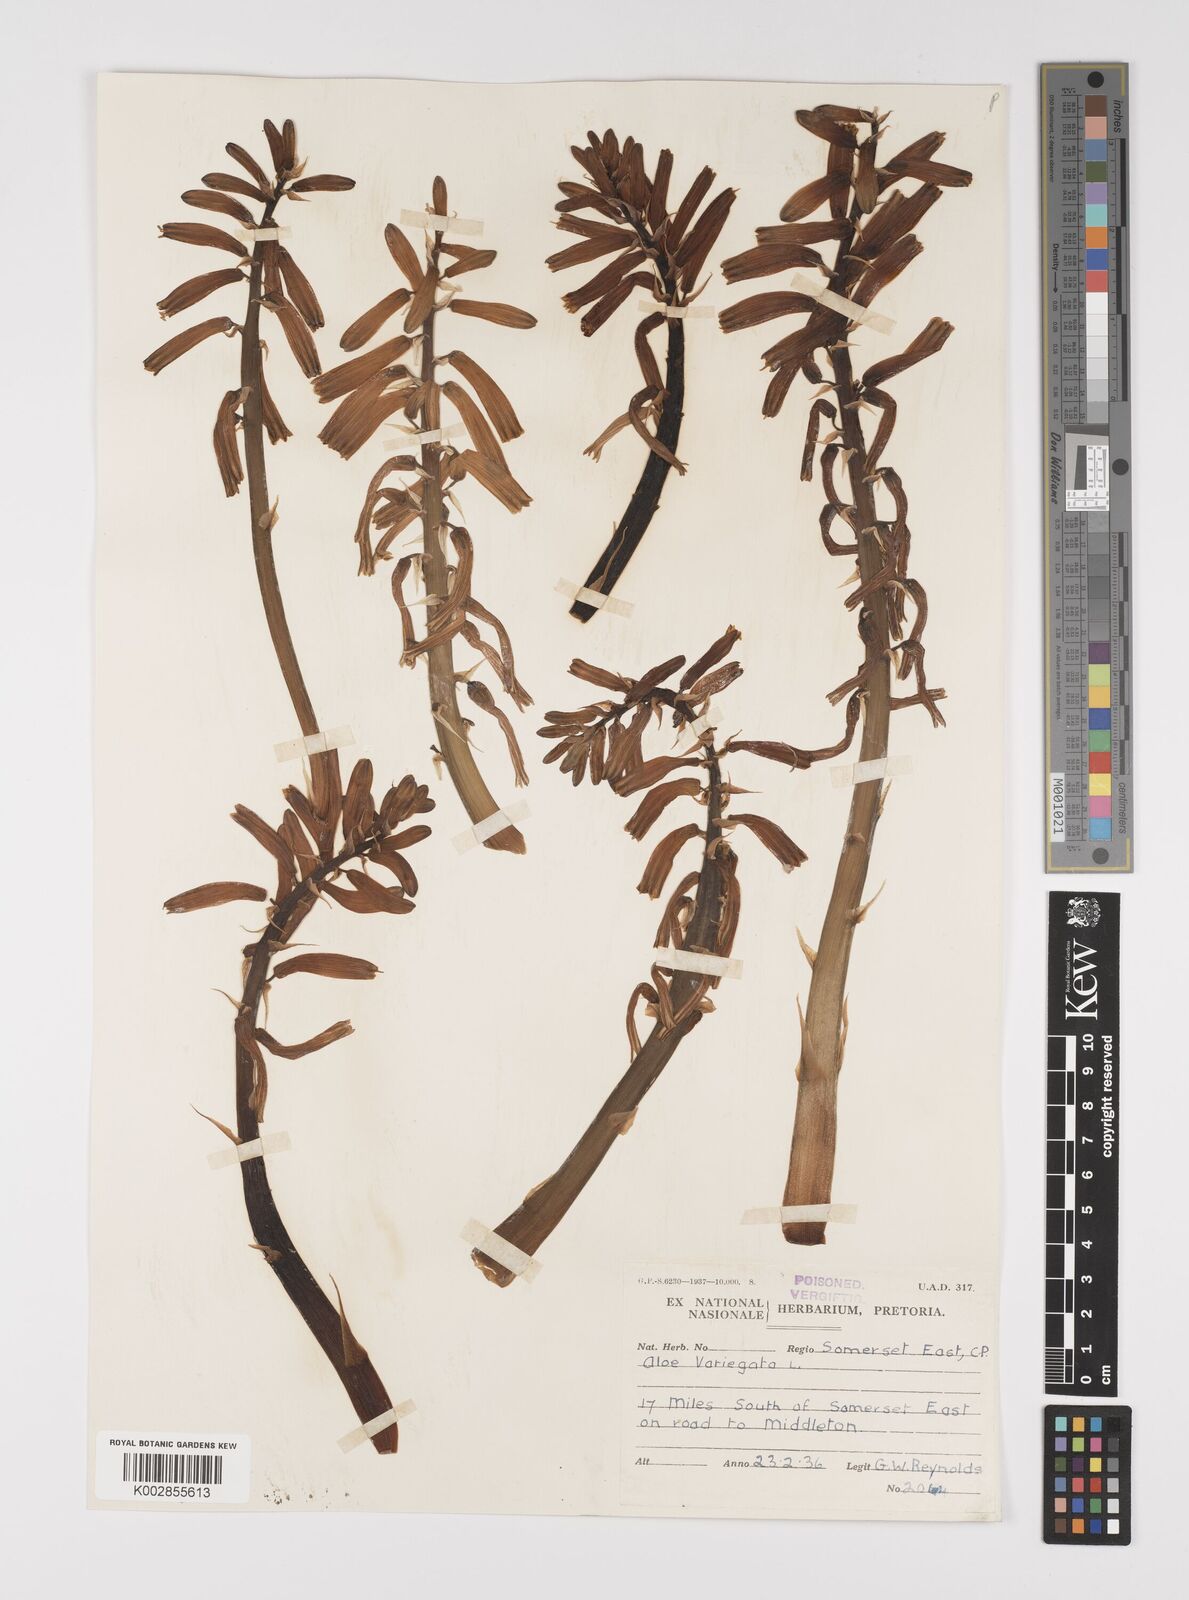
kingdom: Plantae
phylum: Tracheophyta
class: Liliopsida
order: Asparagales
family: Asphodelaceae
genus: Gonialoe
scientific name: Gonialoe variegata
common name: Aloe variegata
